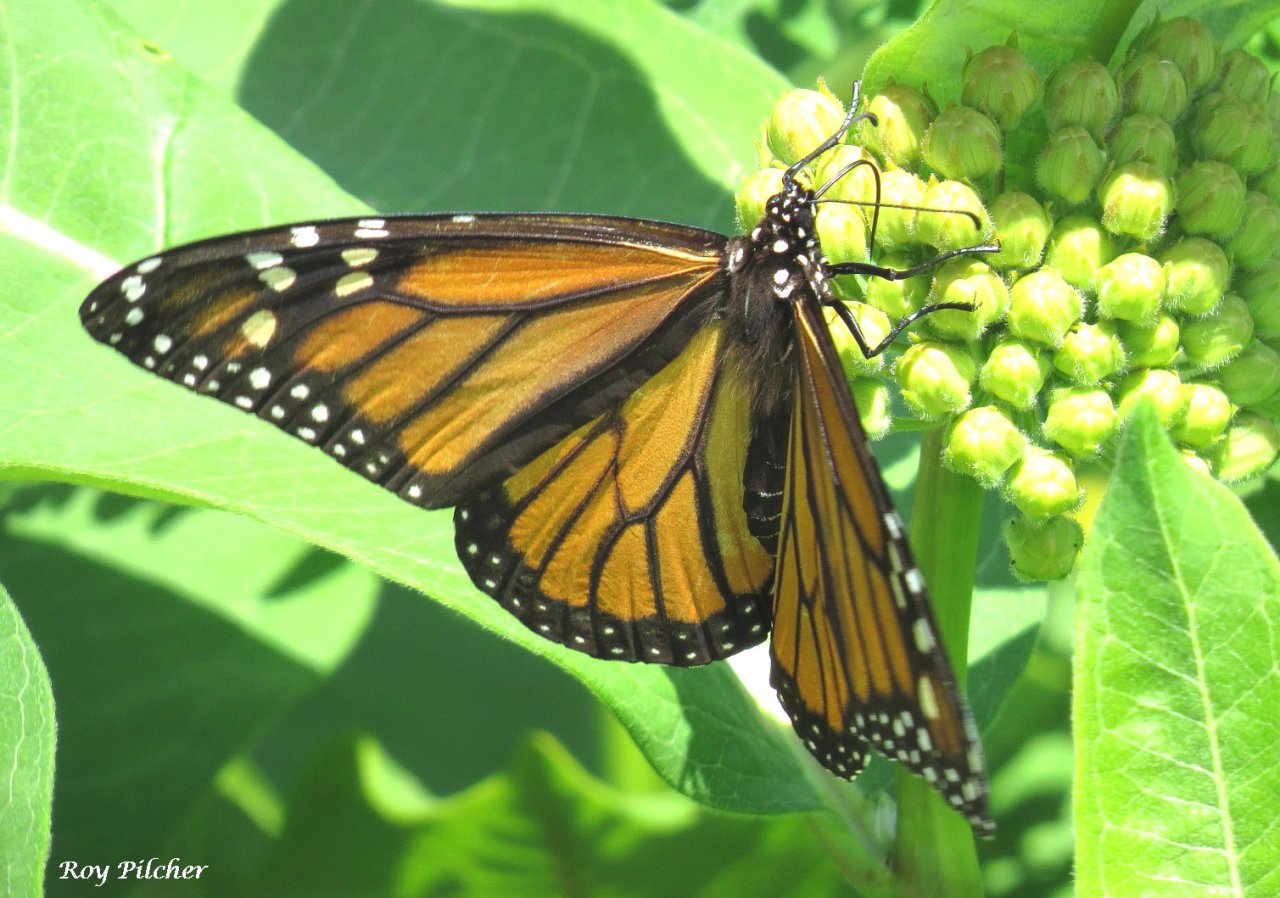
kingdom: Animalia
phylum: Arthropoda
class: Insecta
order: Lepidoptera
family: Nymphalidae
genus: Danaus
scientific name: Danaus plexippus
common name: Monarch
